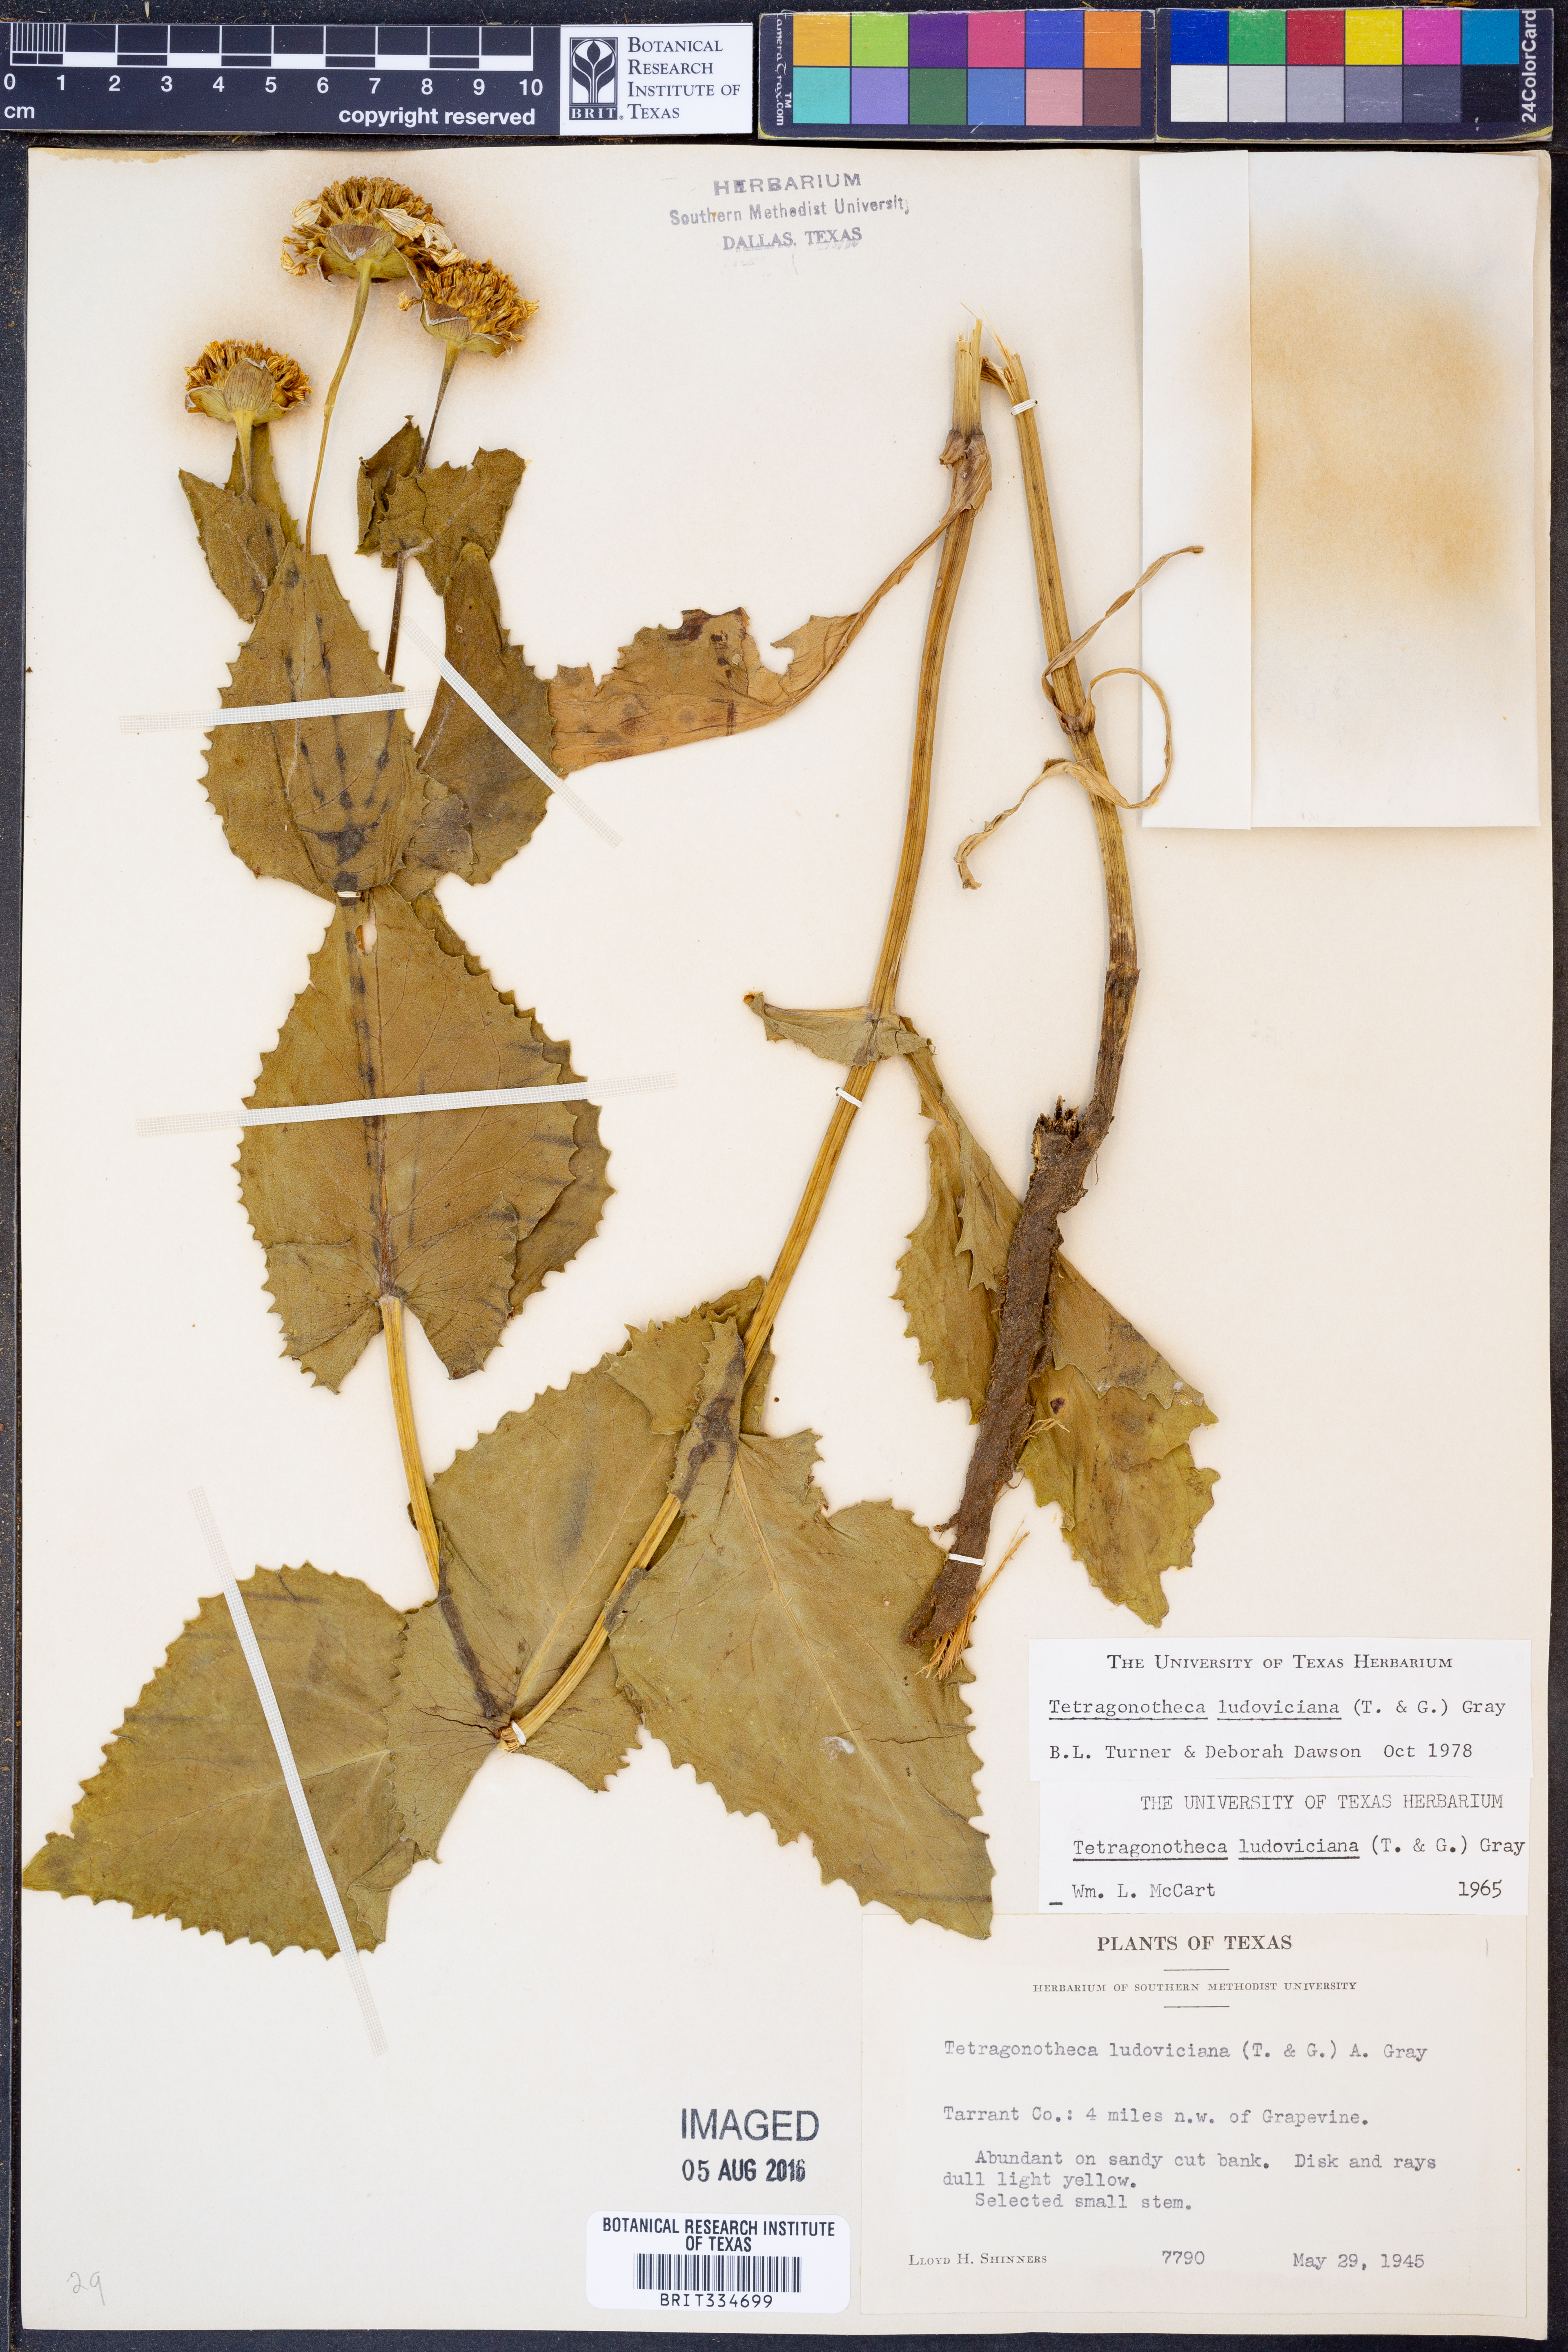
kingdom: Plantae
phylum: Tracheophyta
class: Magnoliopsida
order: Asterales
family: Asteraceae
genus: Tetragonotheca
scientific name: Tetragonotheca ludoviciana
